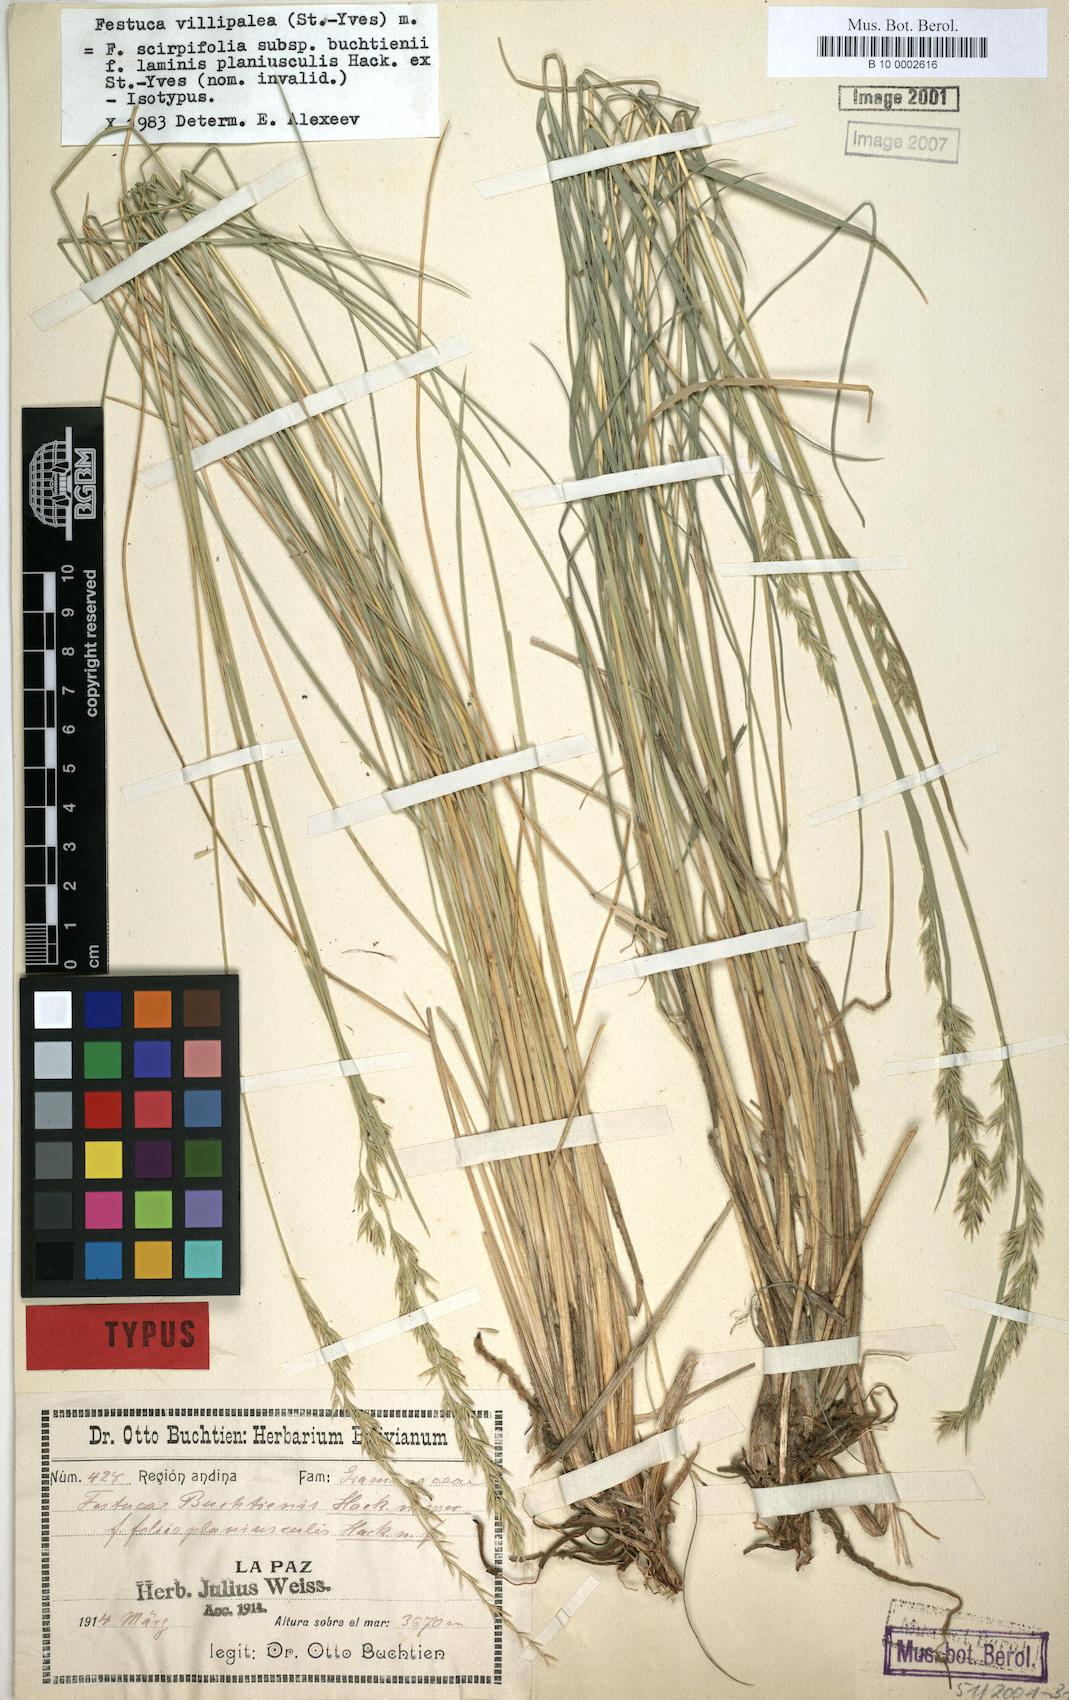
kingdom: Plantae
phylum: Tracheophyta
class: Liliopsida
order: Poales
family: Poaceae
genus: Festuca
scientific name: Festuca fiebrigii
